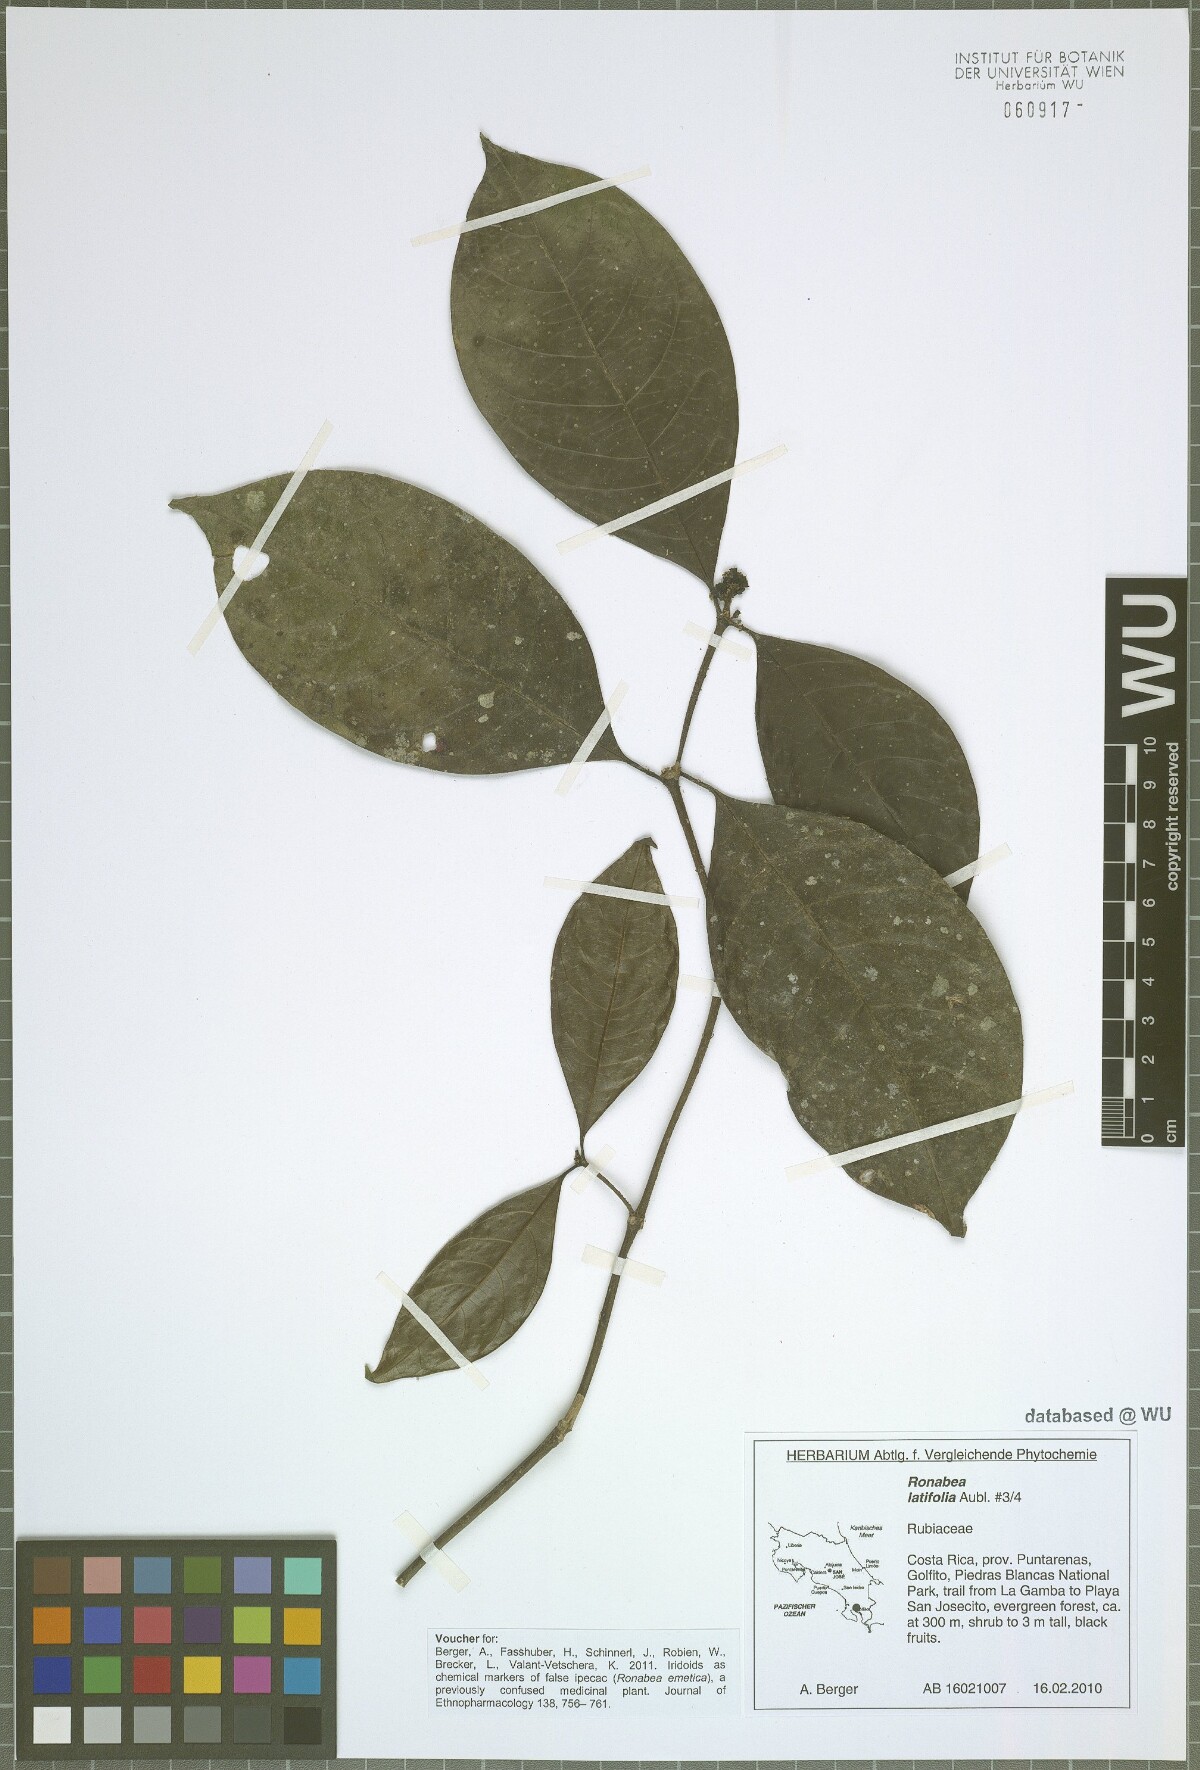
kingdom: Plantae
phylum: Tracheophyta
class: Magnoliopsida
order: Gentianales
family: Rubiaceae
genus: Ronabea
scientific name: Ronabea latifolia
